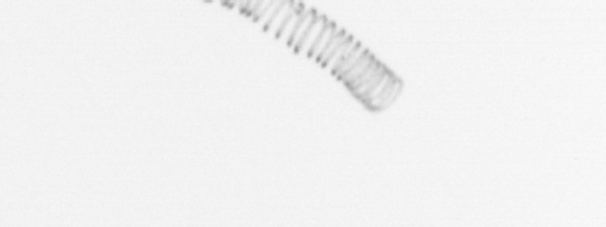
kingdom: Chromista
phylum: Ochrophyta
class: Bacillariophyceae
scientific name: Bacillariophyceae
